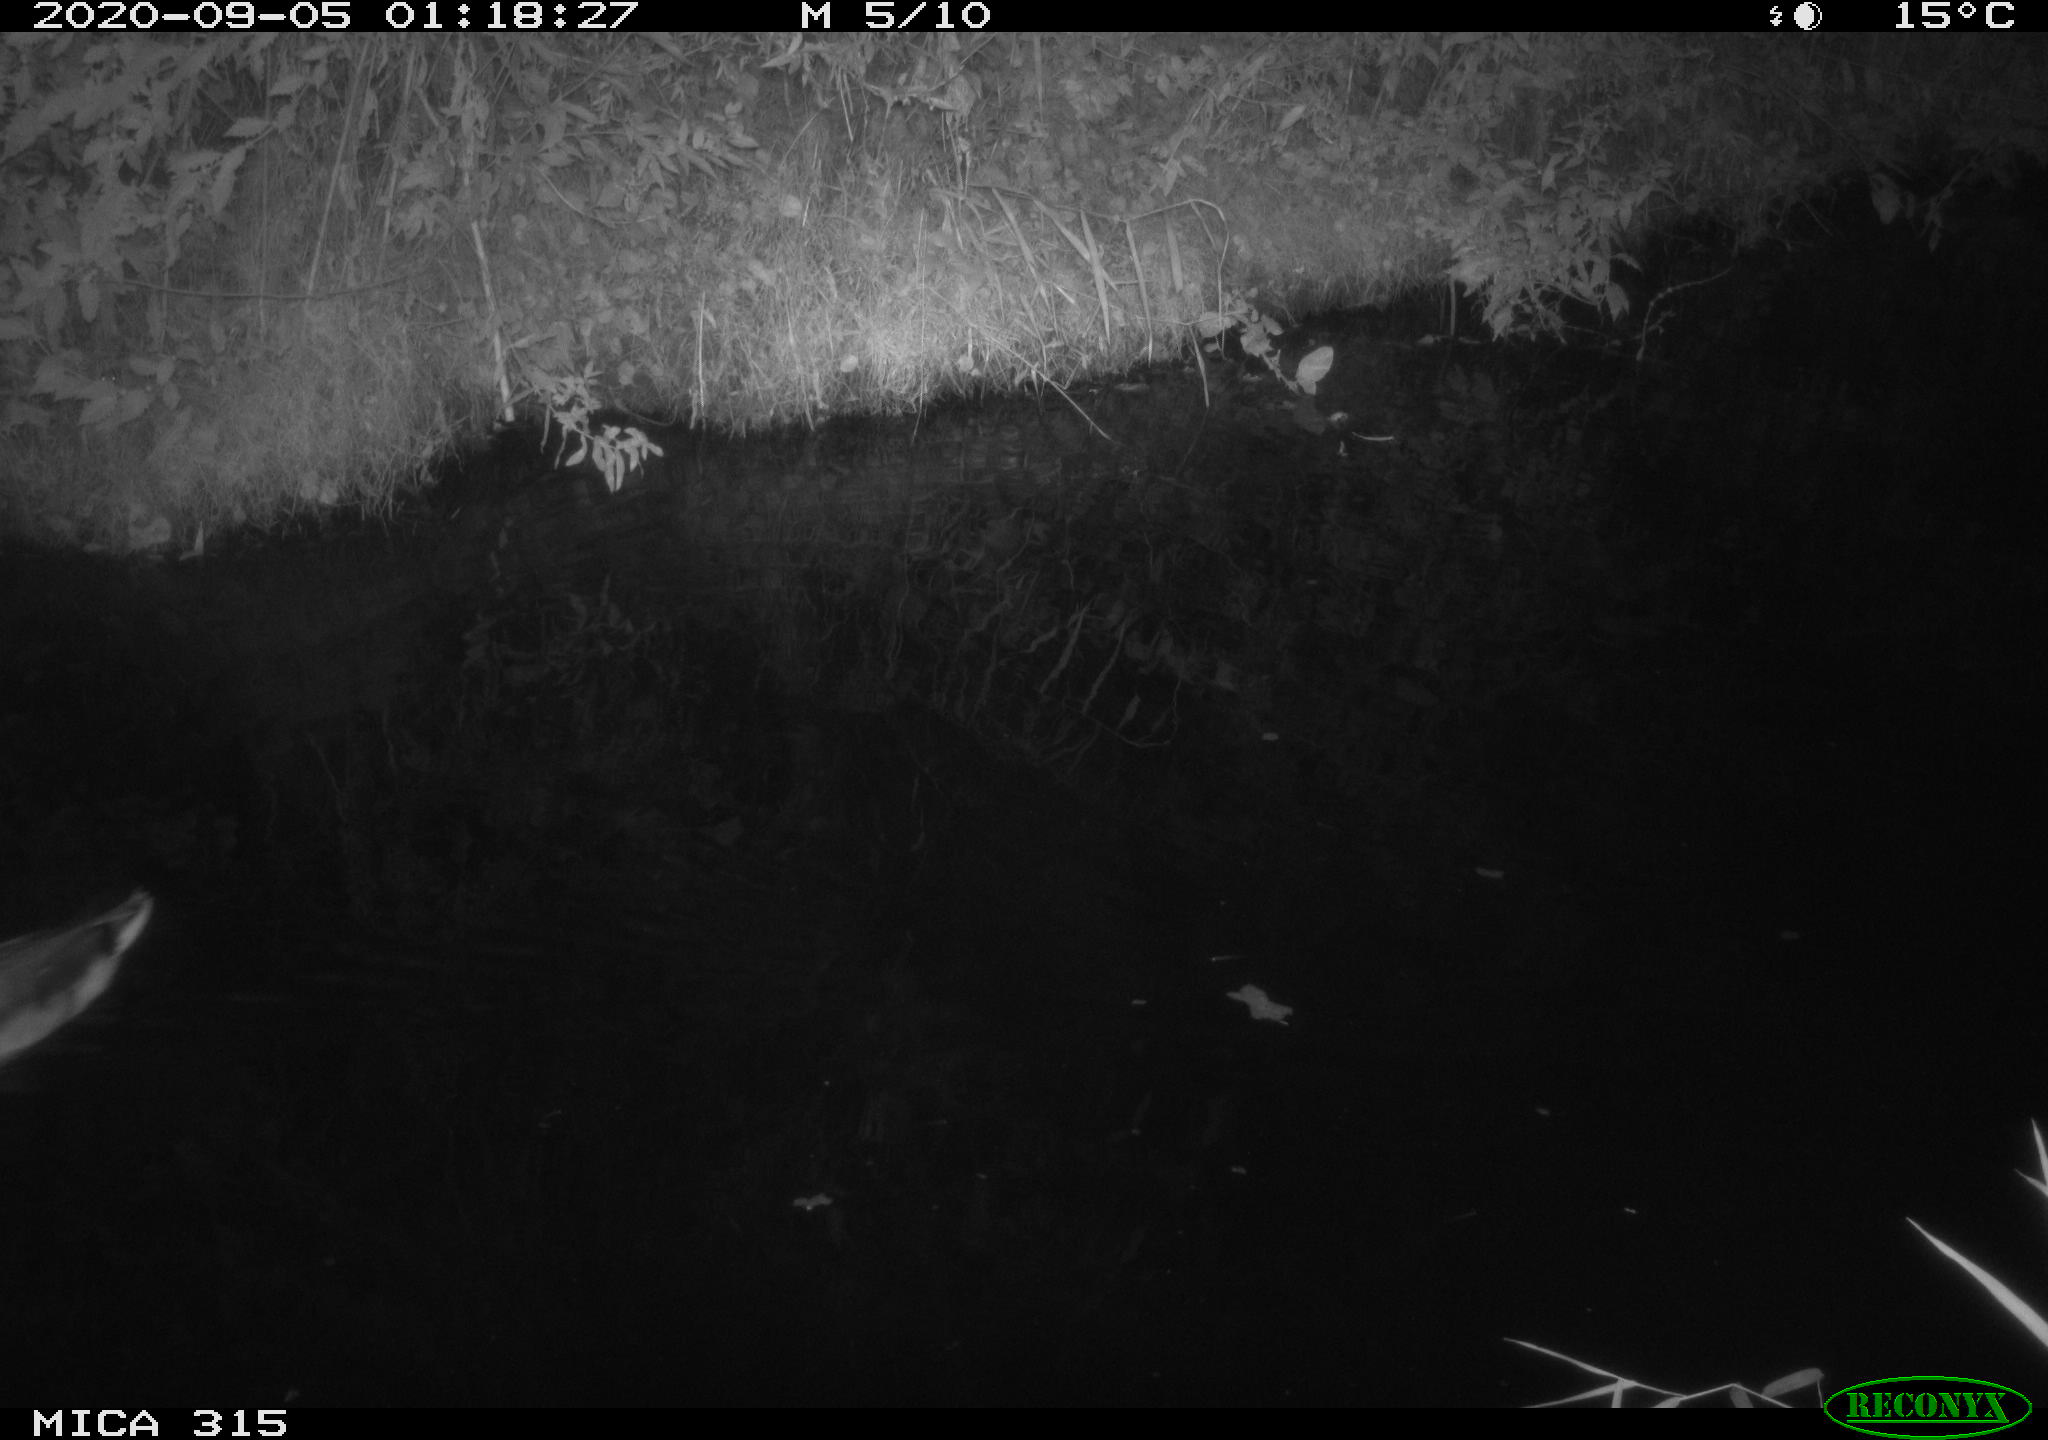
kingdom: Animalia
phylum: Chordata
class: Aves
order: Anseriformes
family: Anatidae
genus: Anas
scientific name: Anas platyrhynchos
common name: Mallard
